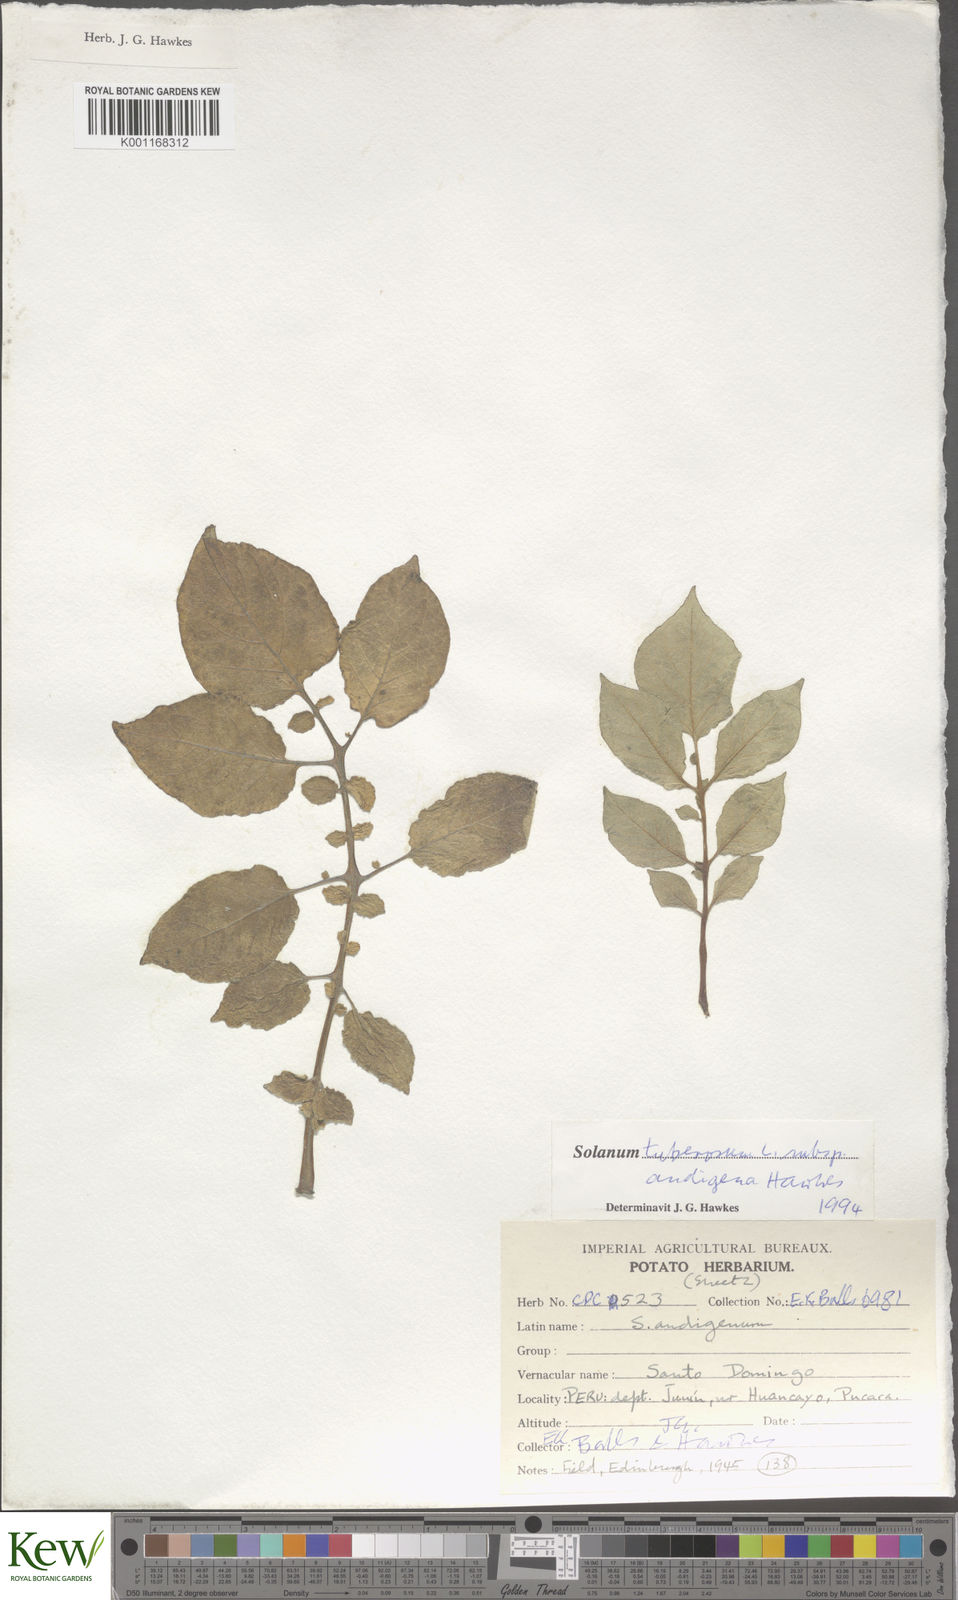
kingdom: Plantae
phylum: Tracheophyta
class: Magnoliopsida
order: Solanales
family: Solanaceae
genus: Solanum
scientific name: Solanum tuberosum
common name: Potato
